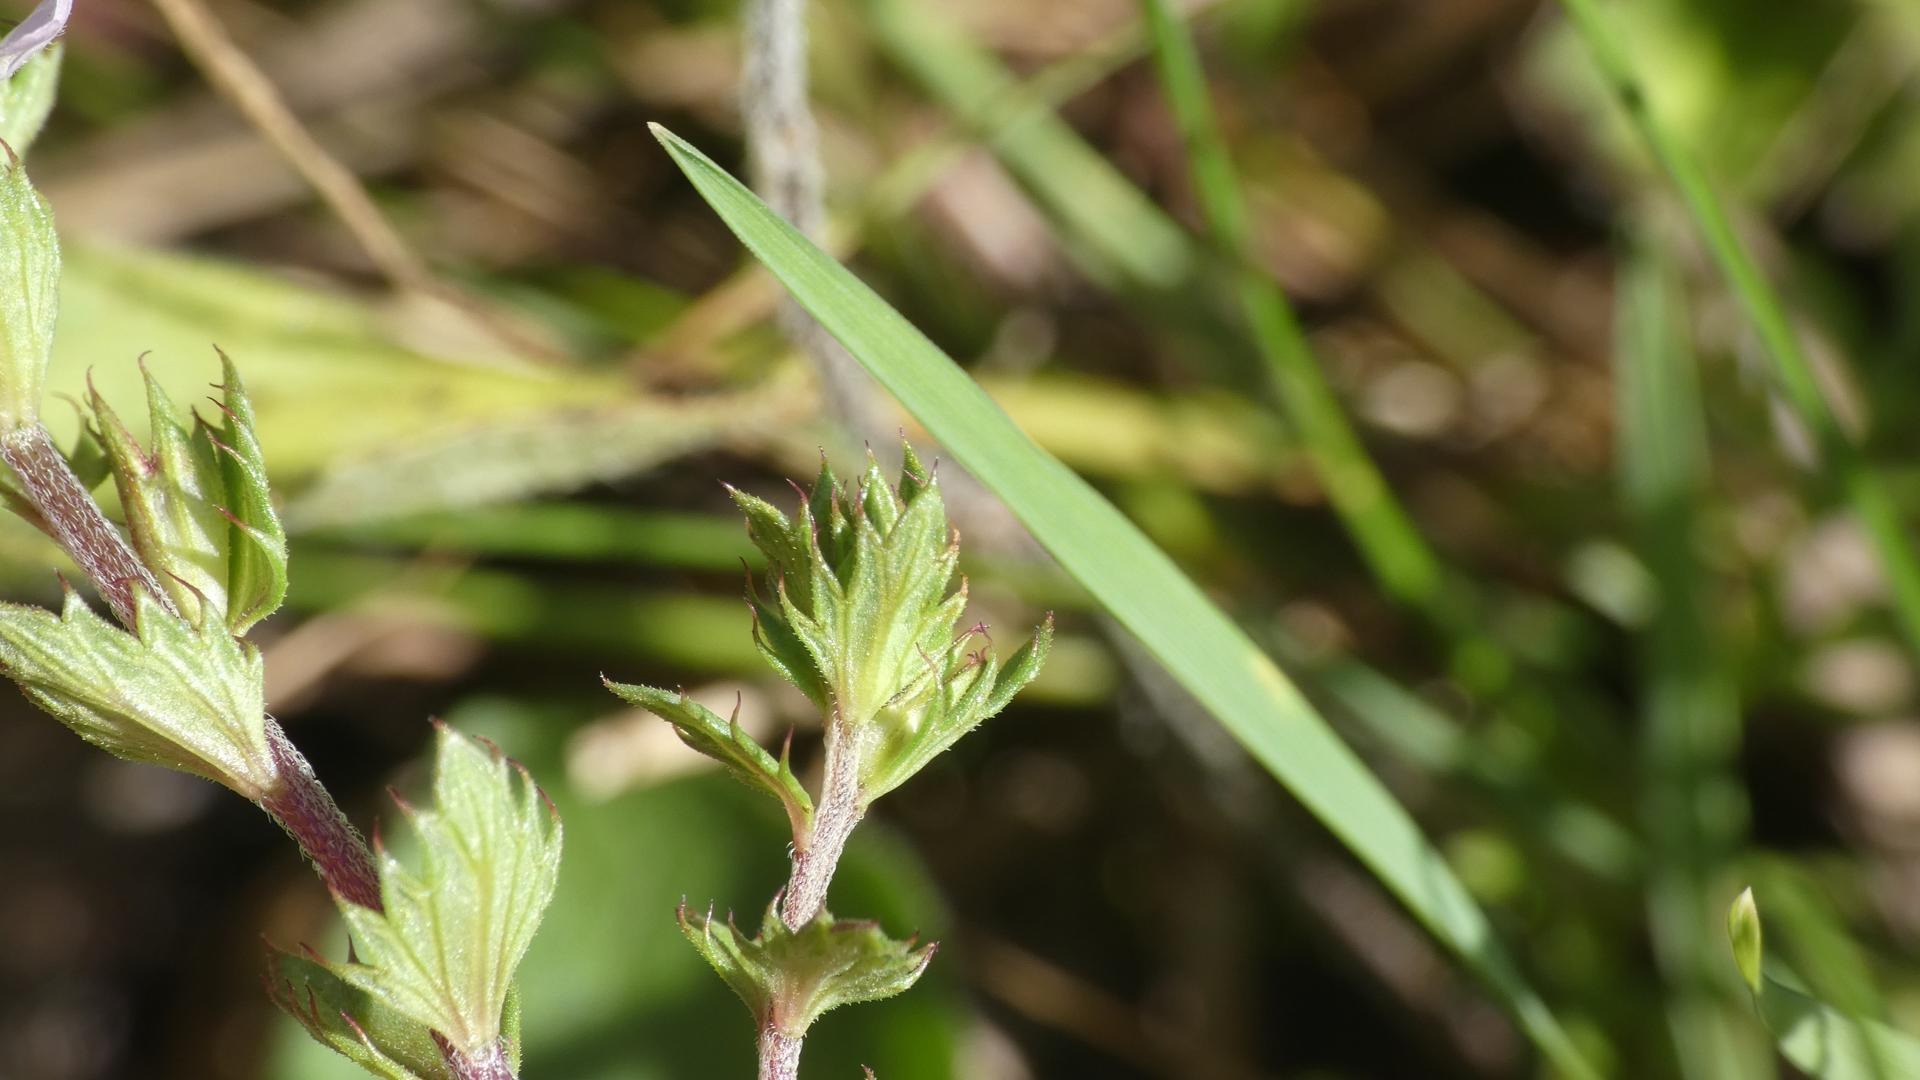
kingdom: Plantae
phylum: Tracheophyta
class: Magnoliopsida
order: Lamiales
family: Orobanchaceae
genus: Euphrasia
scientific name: Euphrasia stricta
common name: Spids øjentrøst
